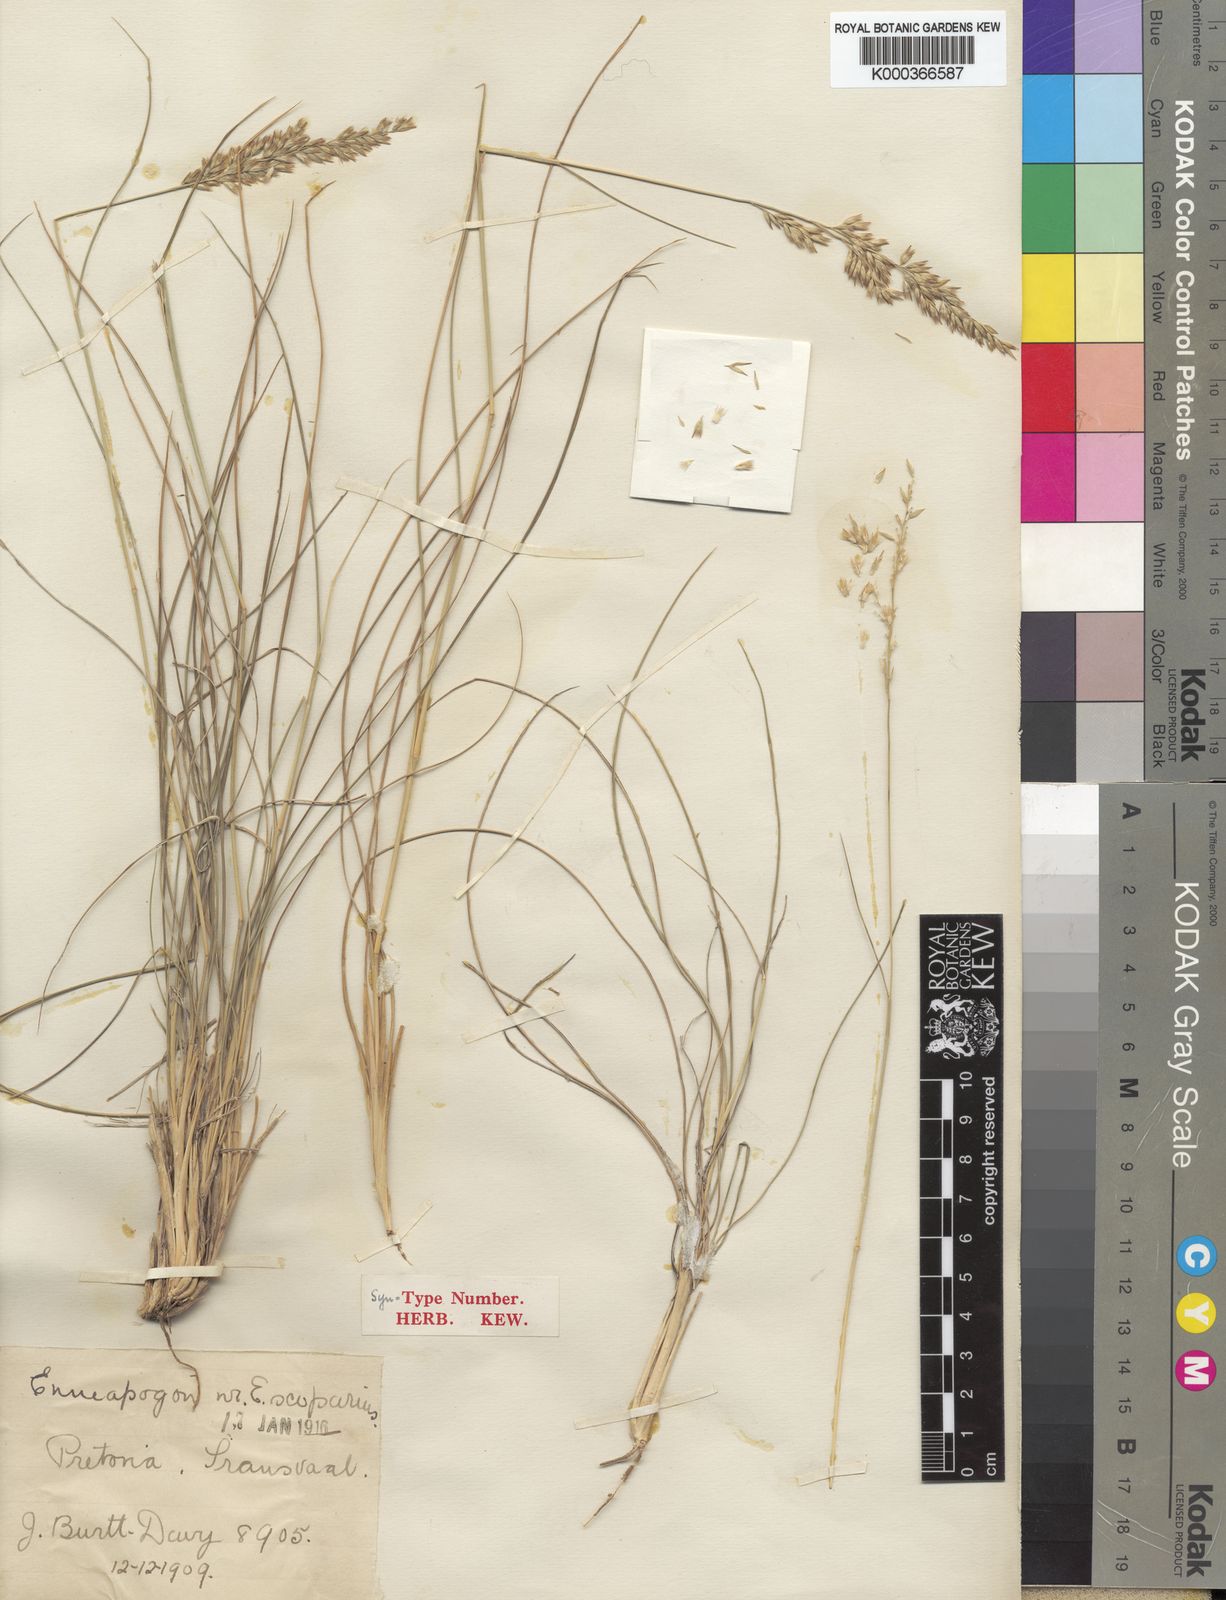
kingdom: Plantae
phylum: Tracheophyta
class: Liliopsida
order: Poales
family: Poaceae
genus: Enneapogon
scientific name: Enneapogon pretoriensis
